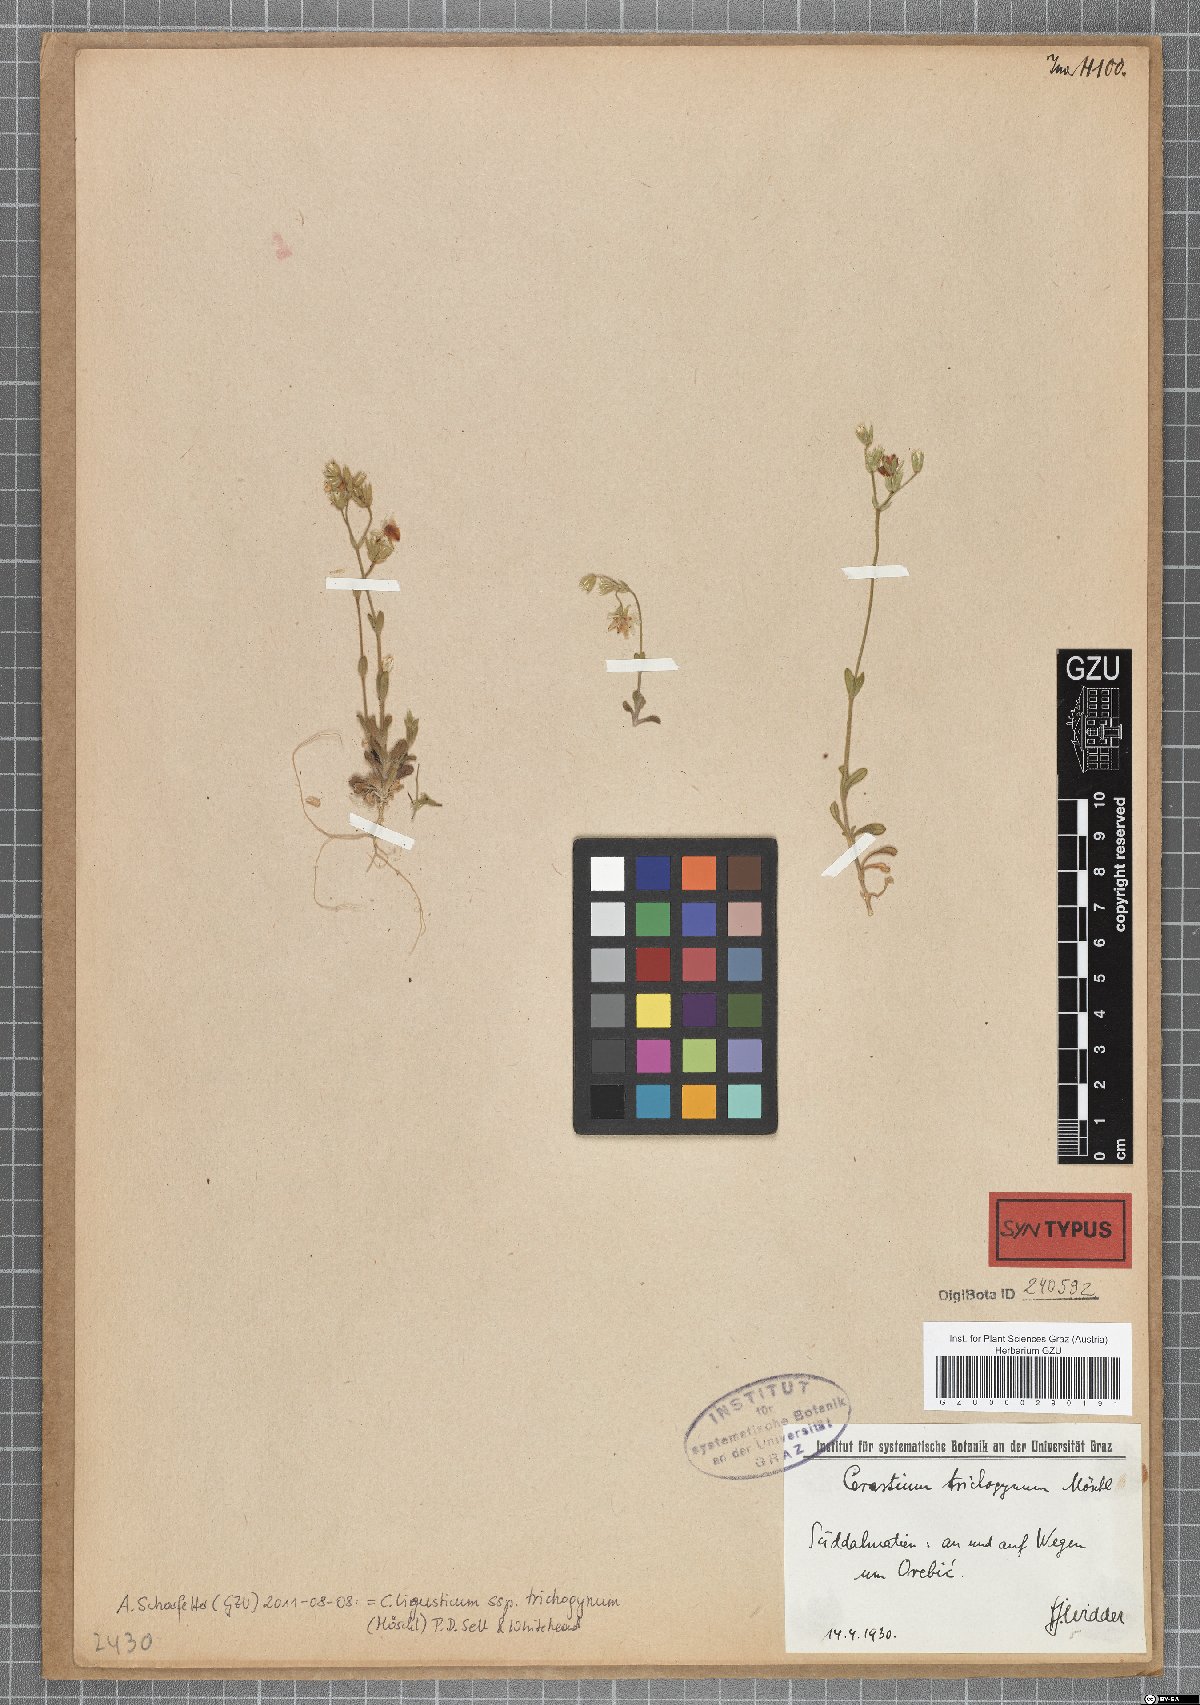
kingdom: Plantae
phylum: Tracheophyta
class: Magnoliopsida
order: Caryophyllales
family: Caryophyllaceae
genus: Cerastium
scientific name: Cerastium ligusticum
